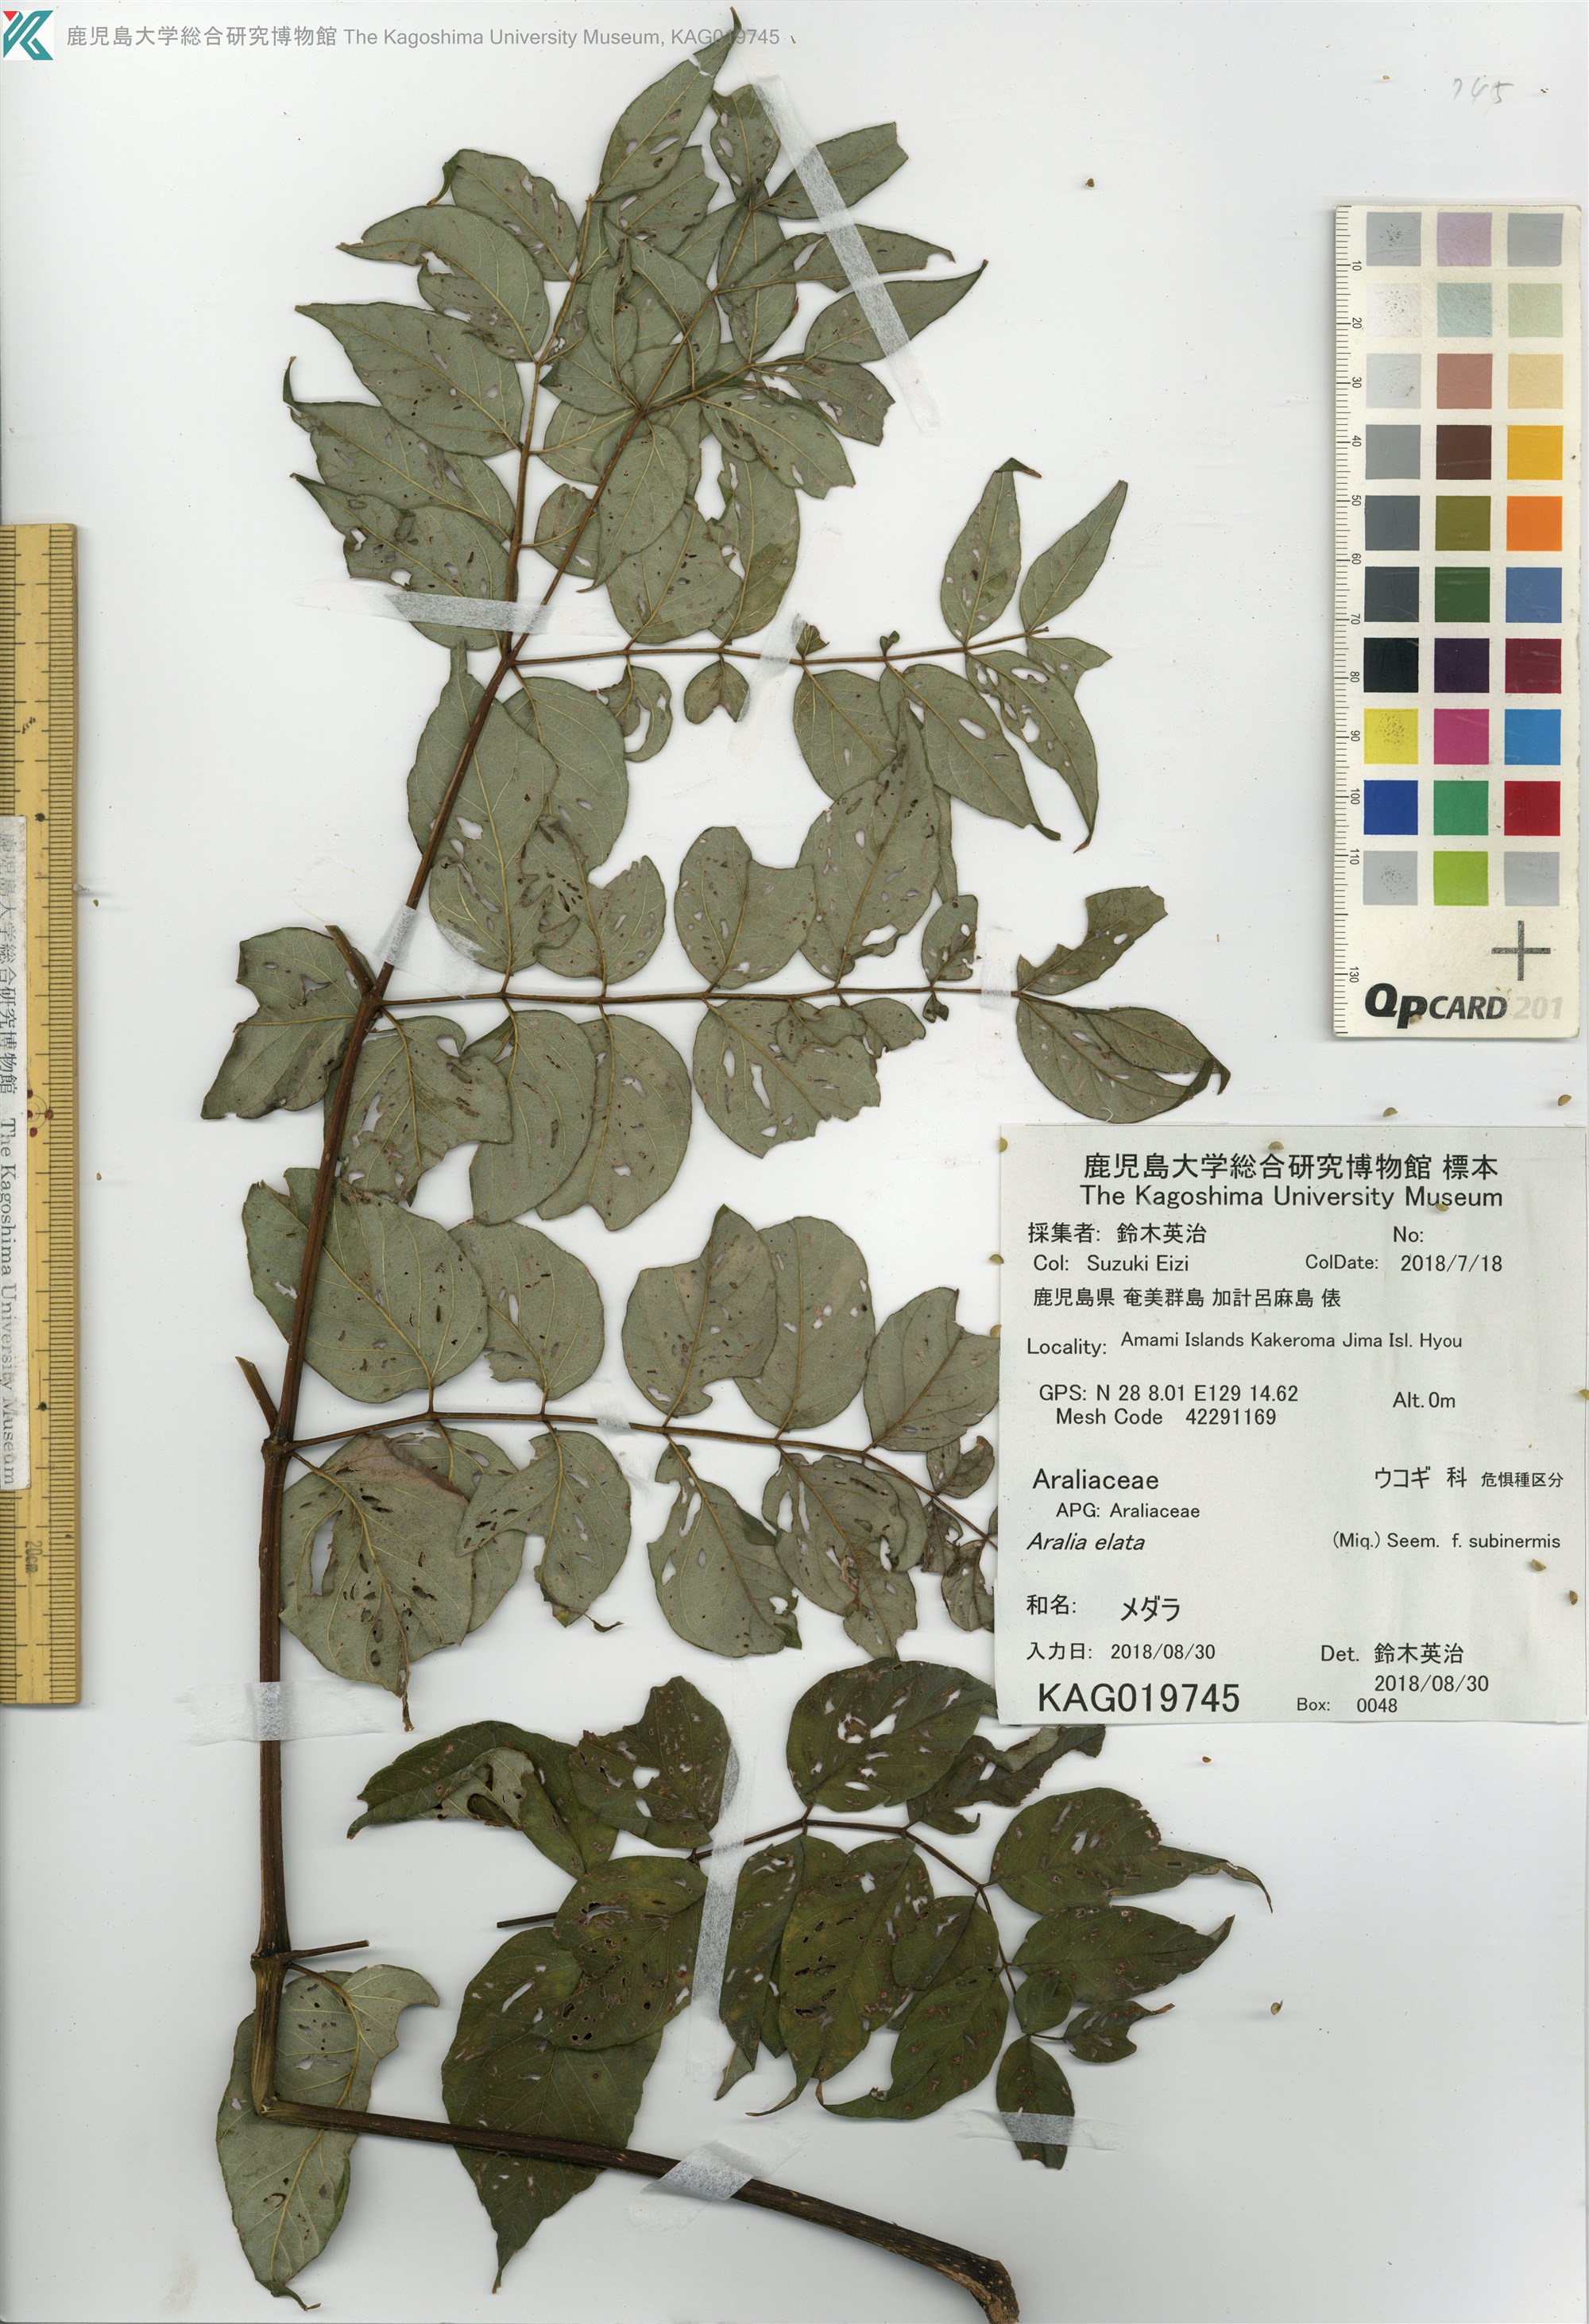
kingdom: Plantae
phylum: Tracheophyta
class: Magnoliopsida
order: Apiales
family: Araliaceae
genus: Aralia
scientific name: Aralia elata
